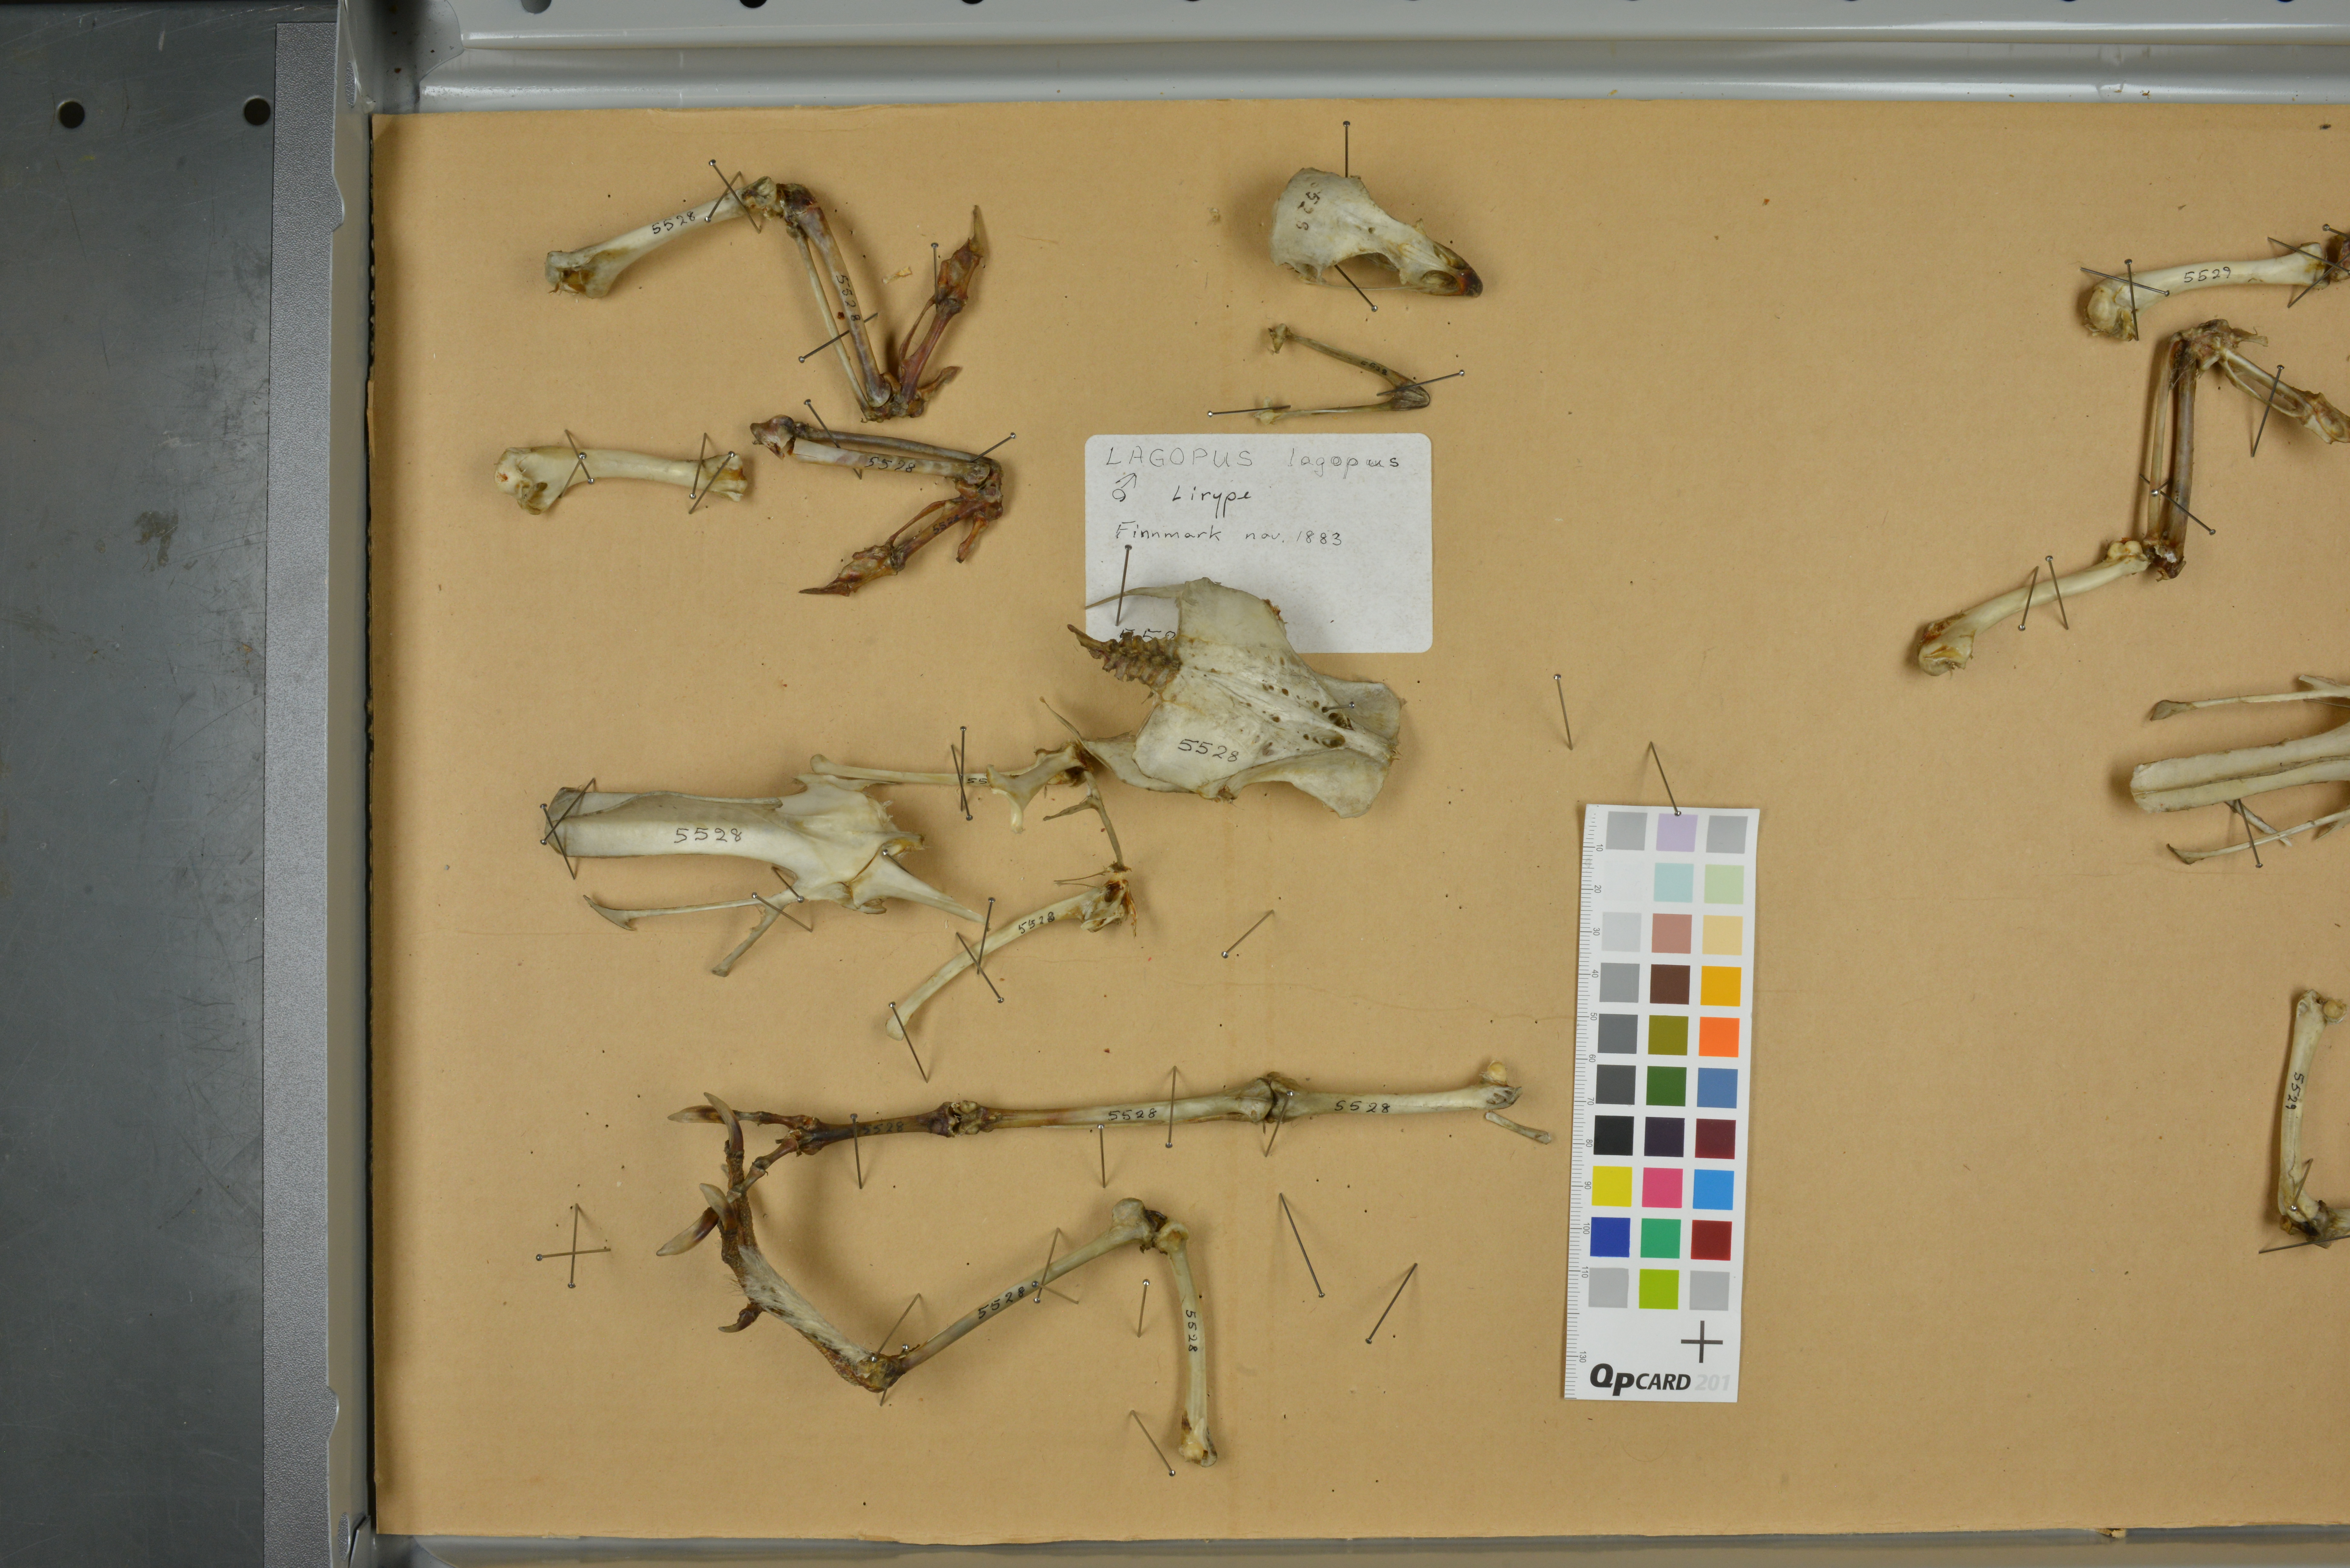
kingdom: Animalia
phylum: Chordata
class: Aves
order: Galliformes
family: Phasianidae
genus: Lagopus
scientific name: Lagopus lagopus
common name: Willow ptarmigan
